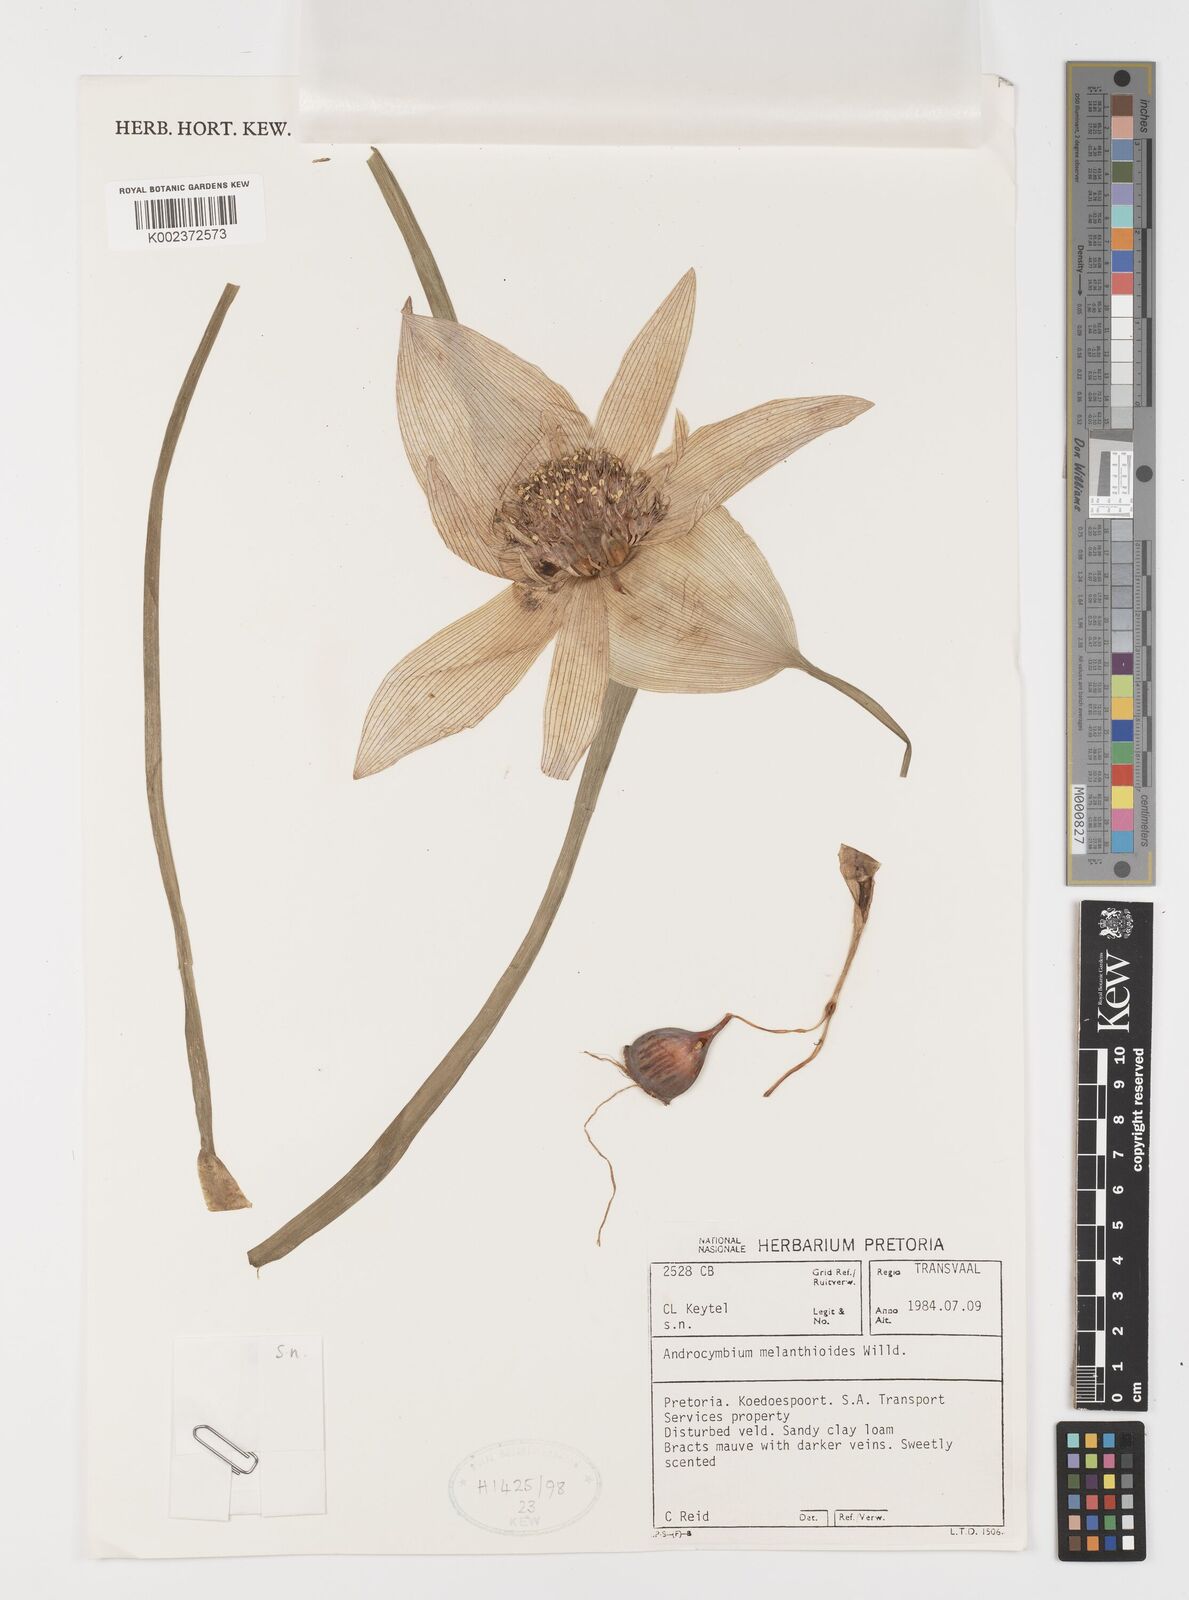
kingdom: Plantae
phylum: Tracheophyta
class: Liliopsida
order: Liliales
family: Colchicaceae
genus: Colchicum
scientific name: Colchicum melanthioides
